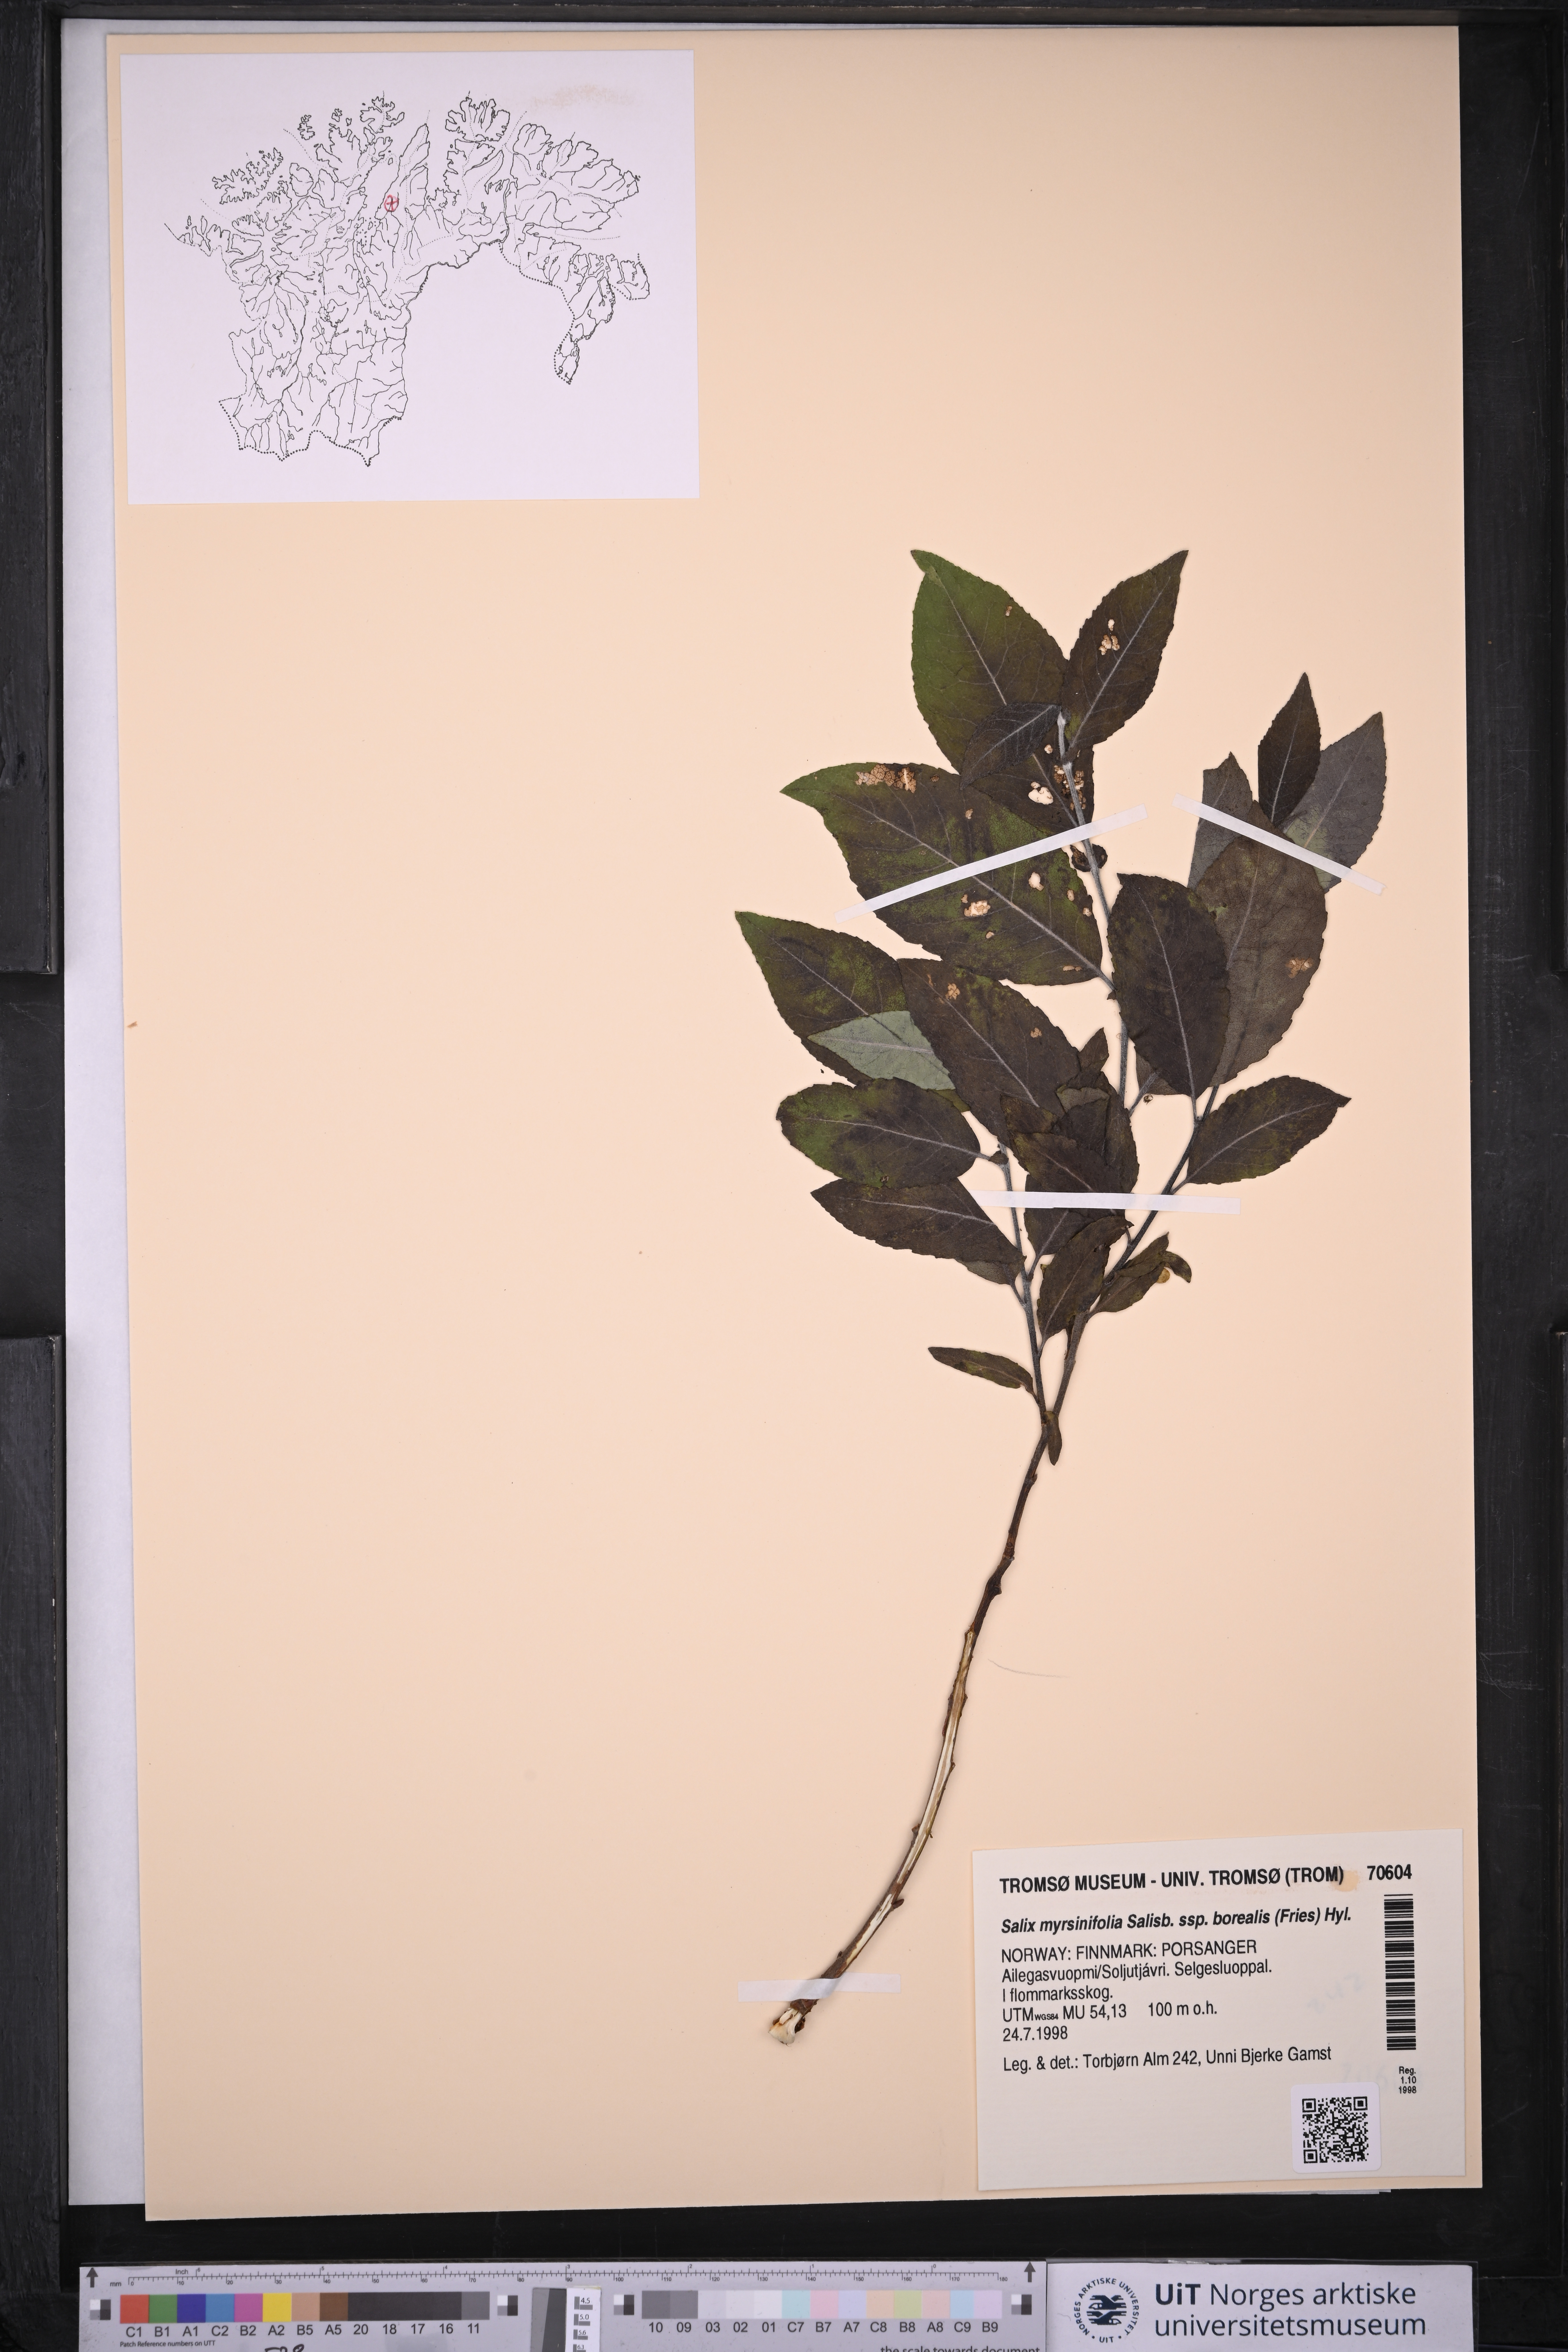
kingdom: Plantae
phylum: Tracheophyta
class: Magnoliopsida
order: Malpighiales
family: Salicaceae
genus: Salix
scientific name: Salix myrsinifolia
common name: Dark-leaved willow
